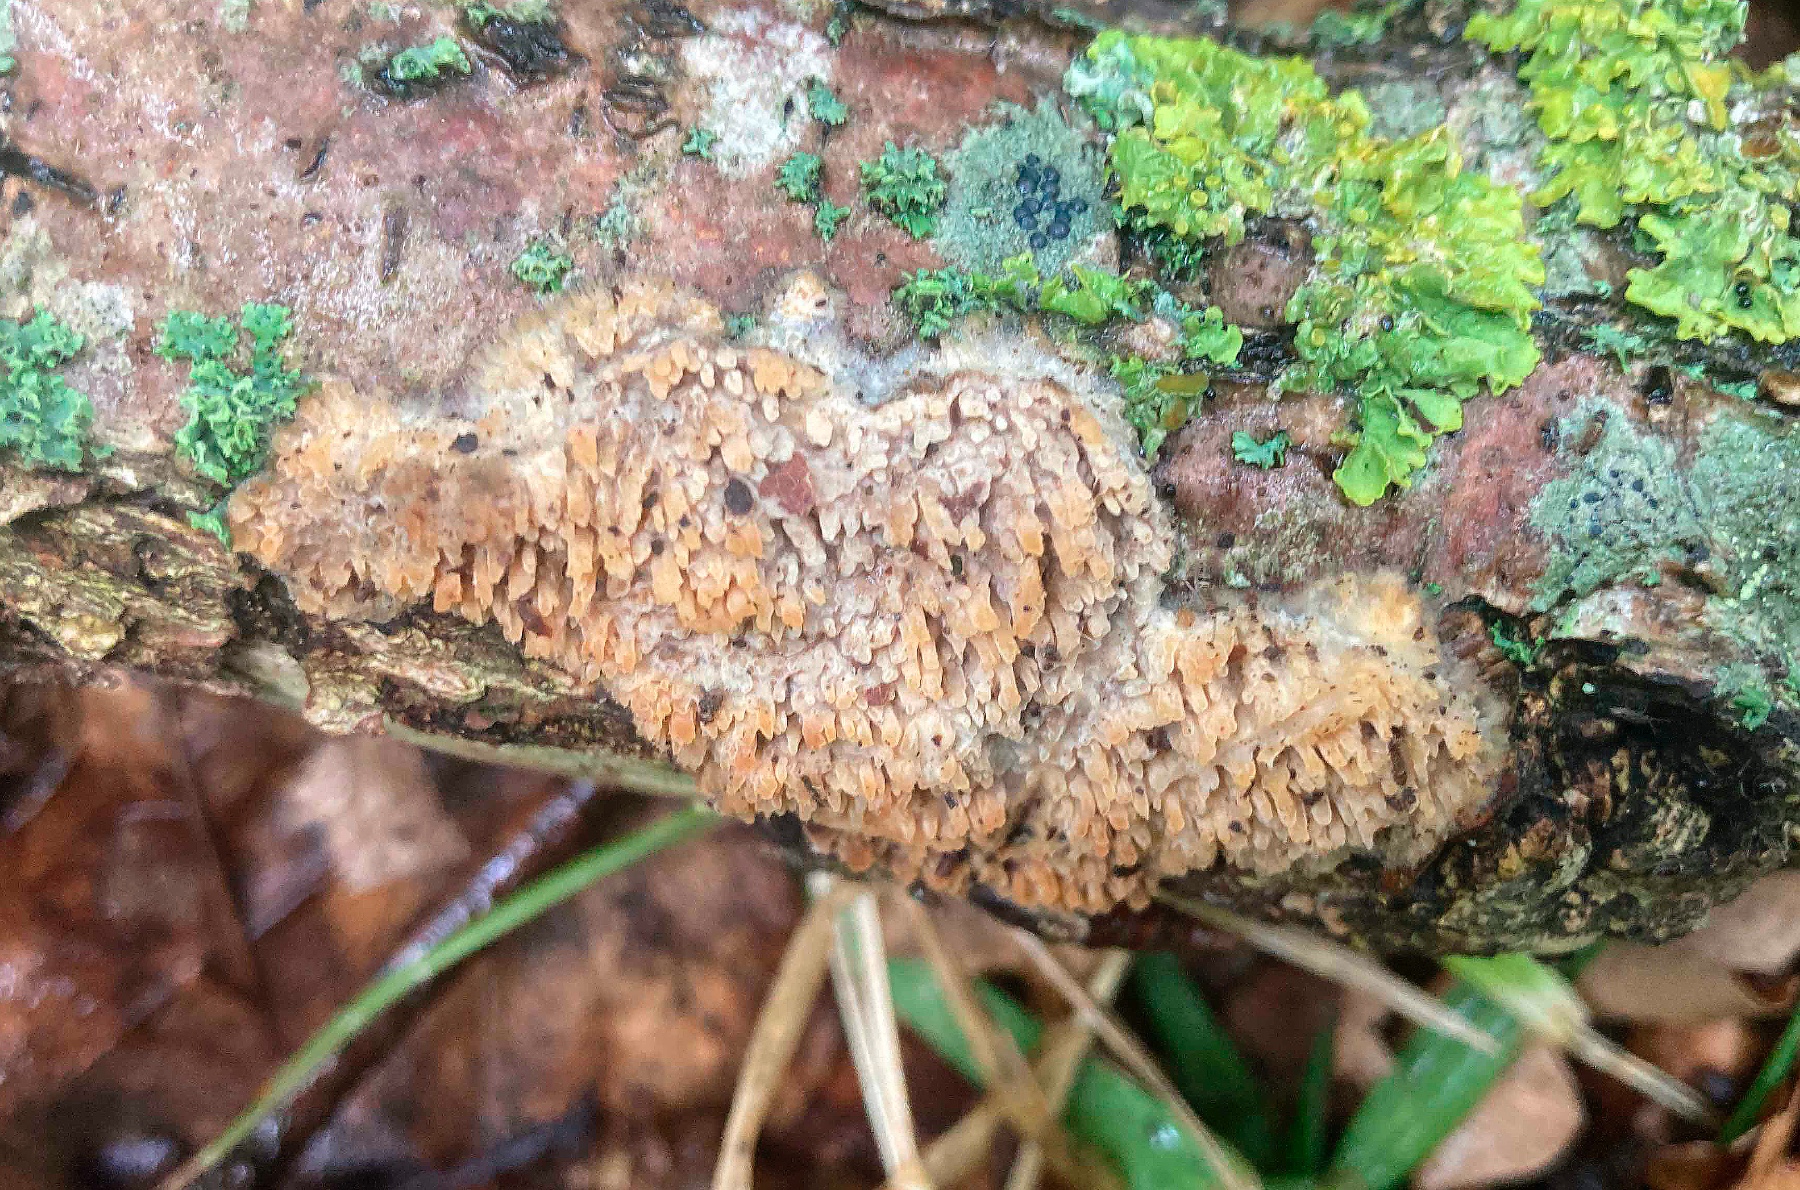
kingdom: Fungi
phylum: Basidiomycota
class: Agaricomycetes
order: Agaricales
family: Radulomycetaceae
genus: Radulomyces
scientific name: Radulomyces molaris
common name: tandet naftalinskind
